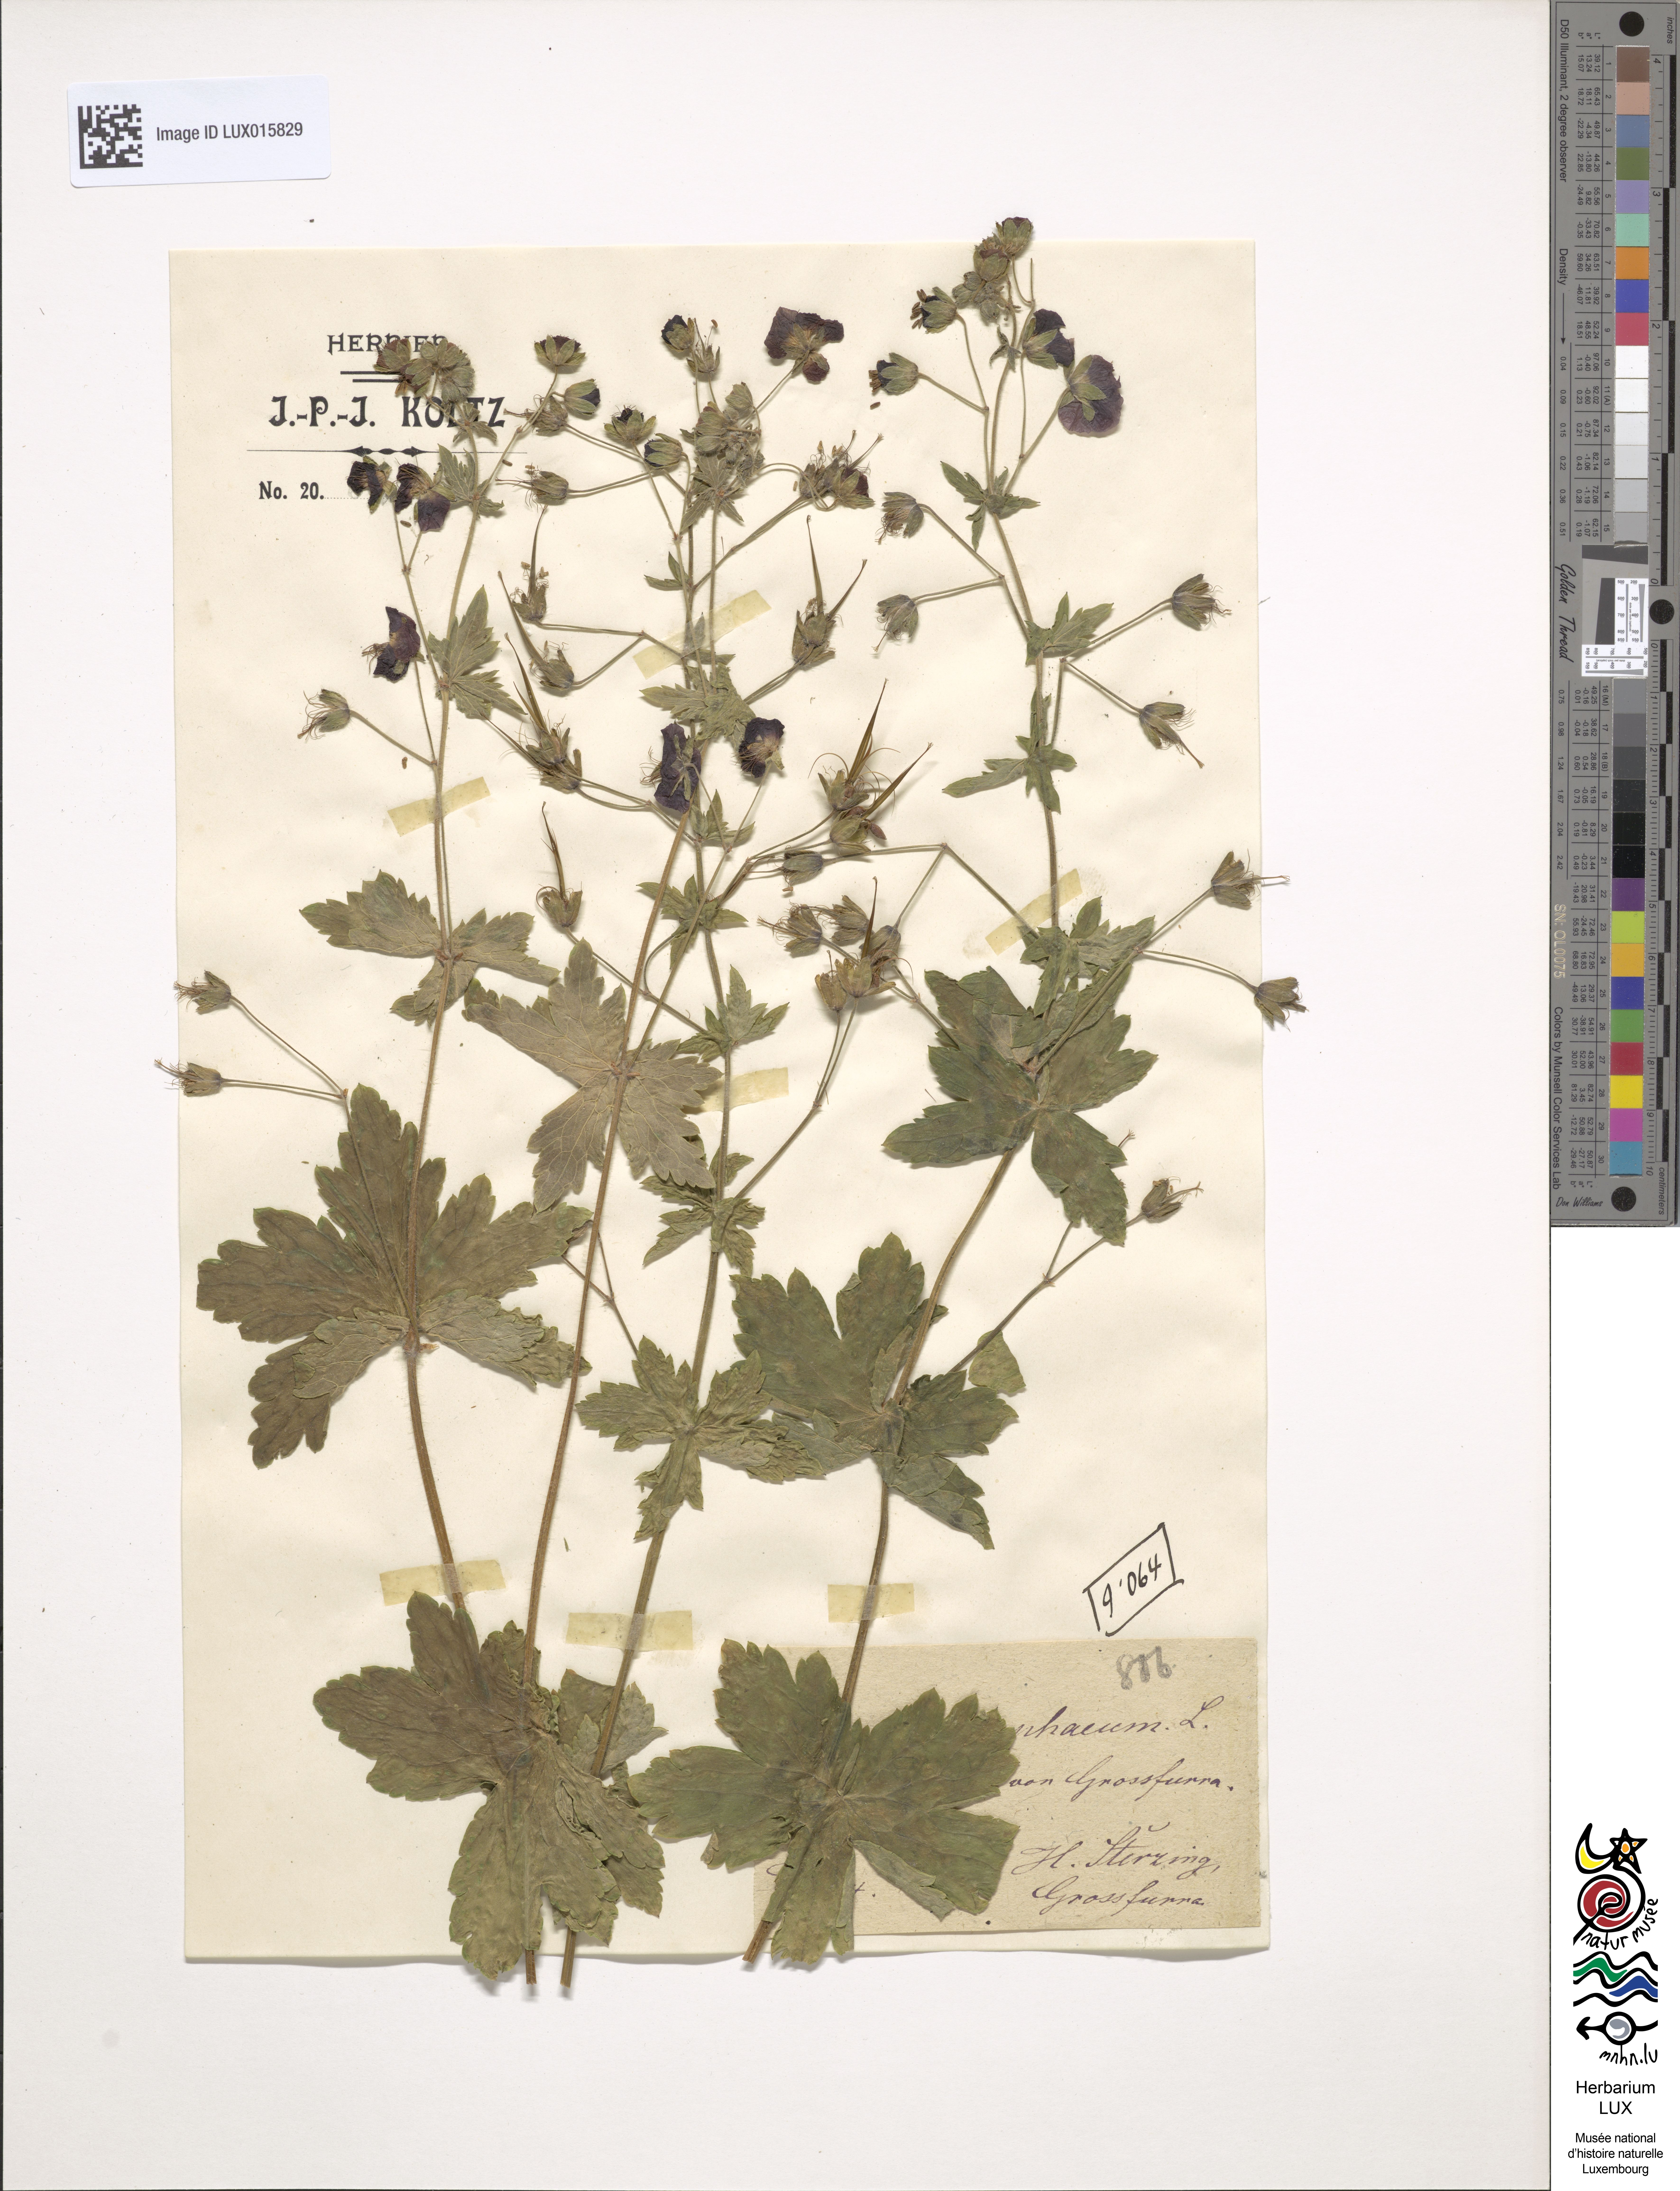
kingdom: Plantae
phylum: Tracheophyta
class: Magnoliopsida
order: Geraniales
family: Geraniaceae
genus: Geranium
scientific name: Geranium phaeum
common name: Dusky crane's-bill
